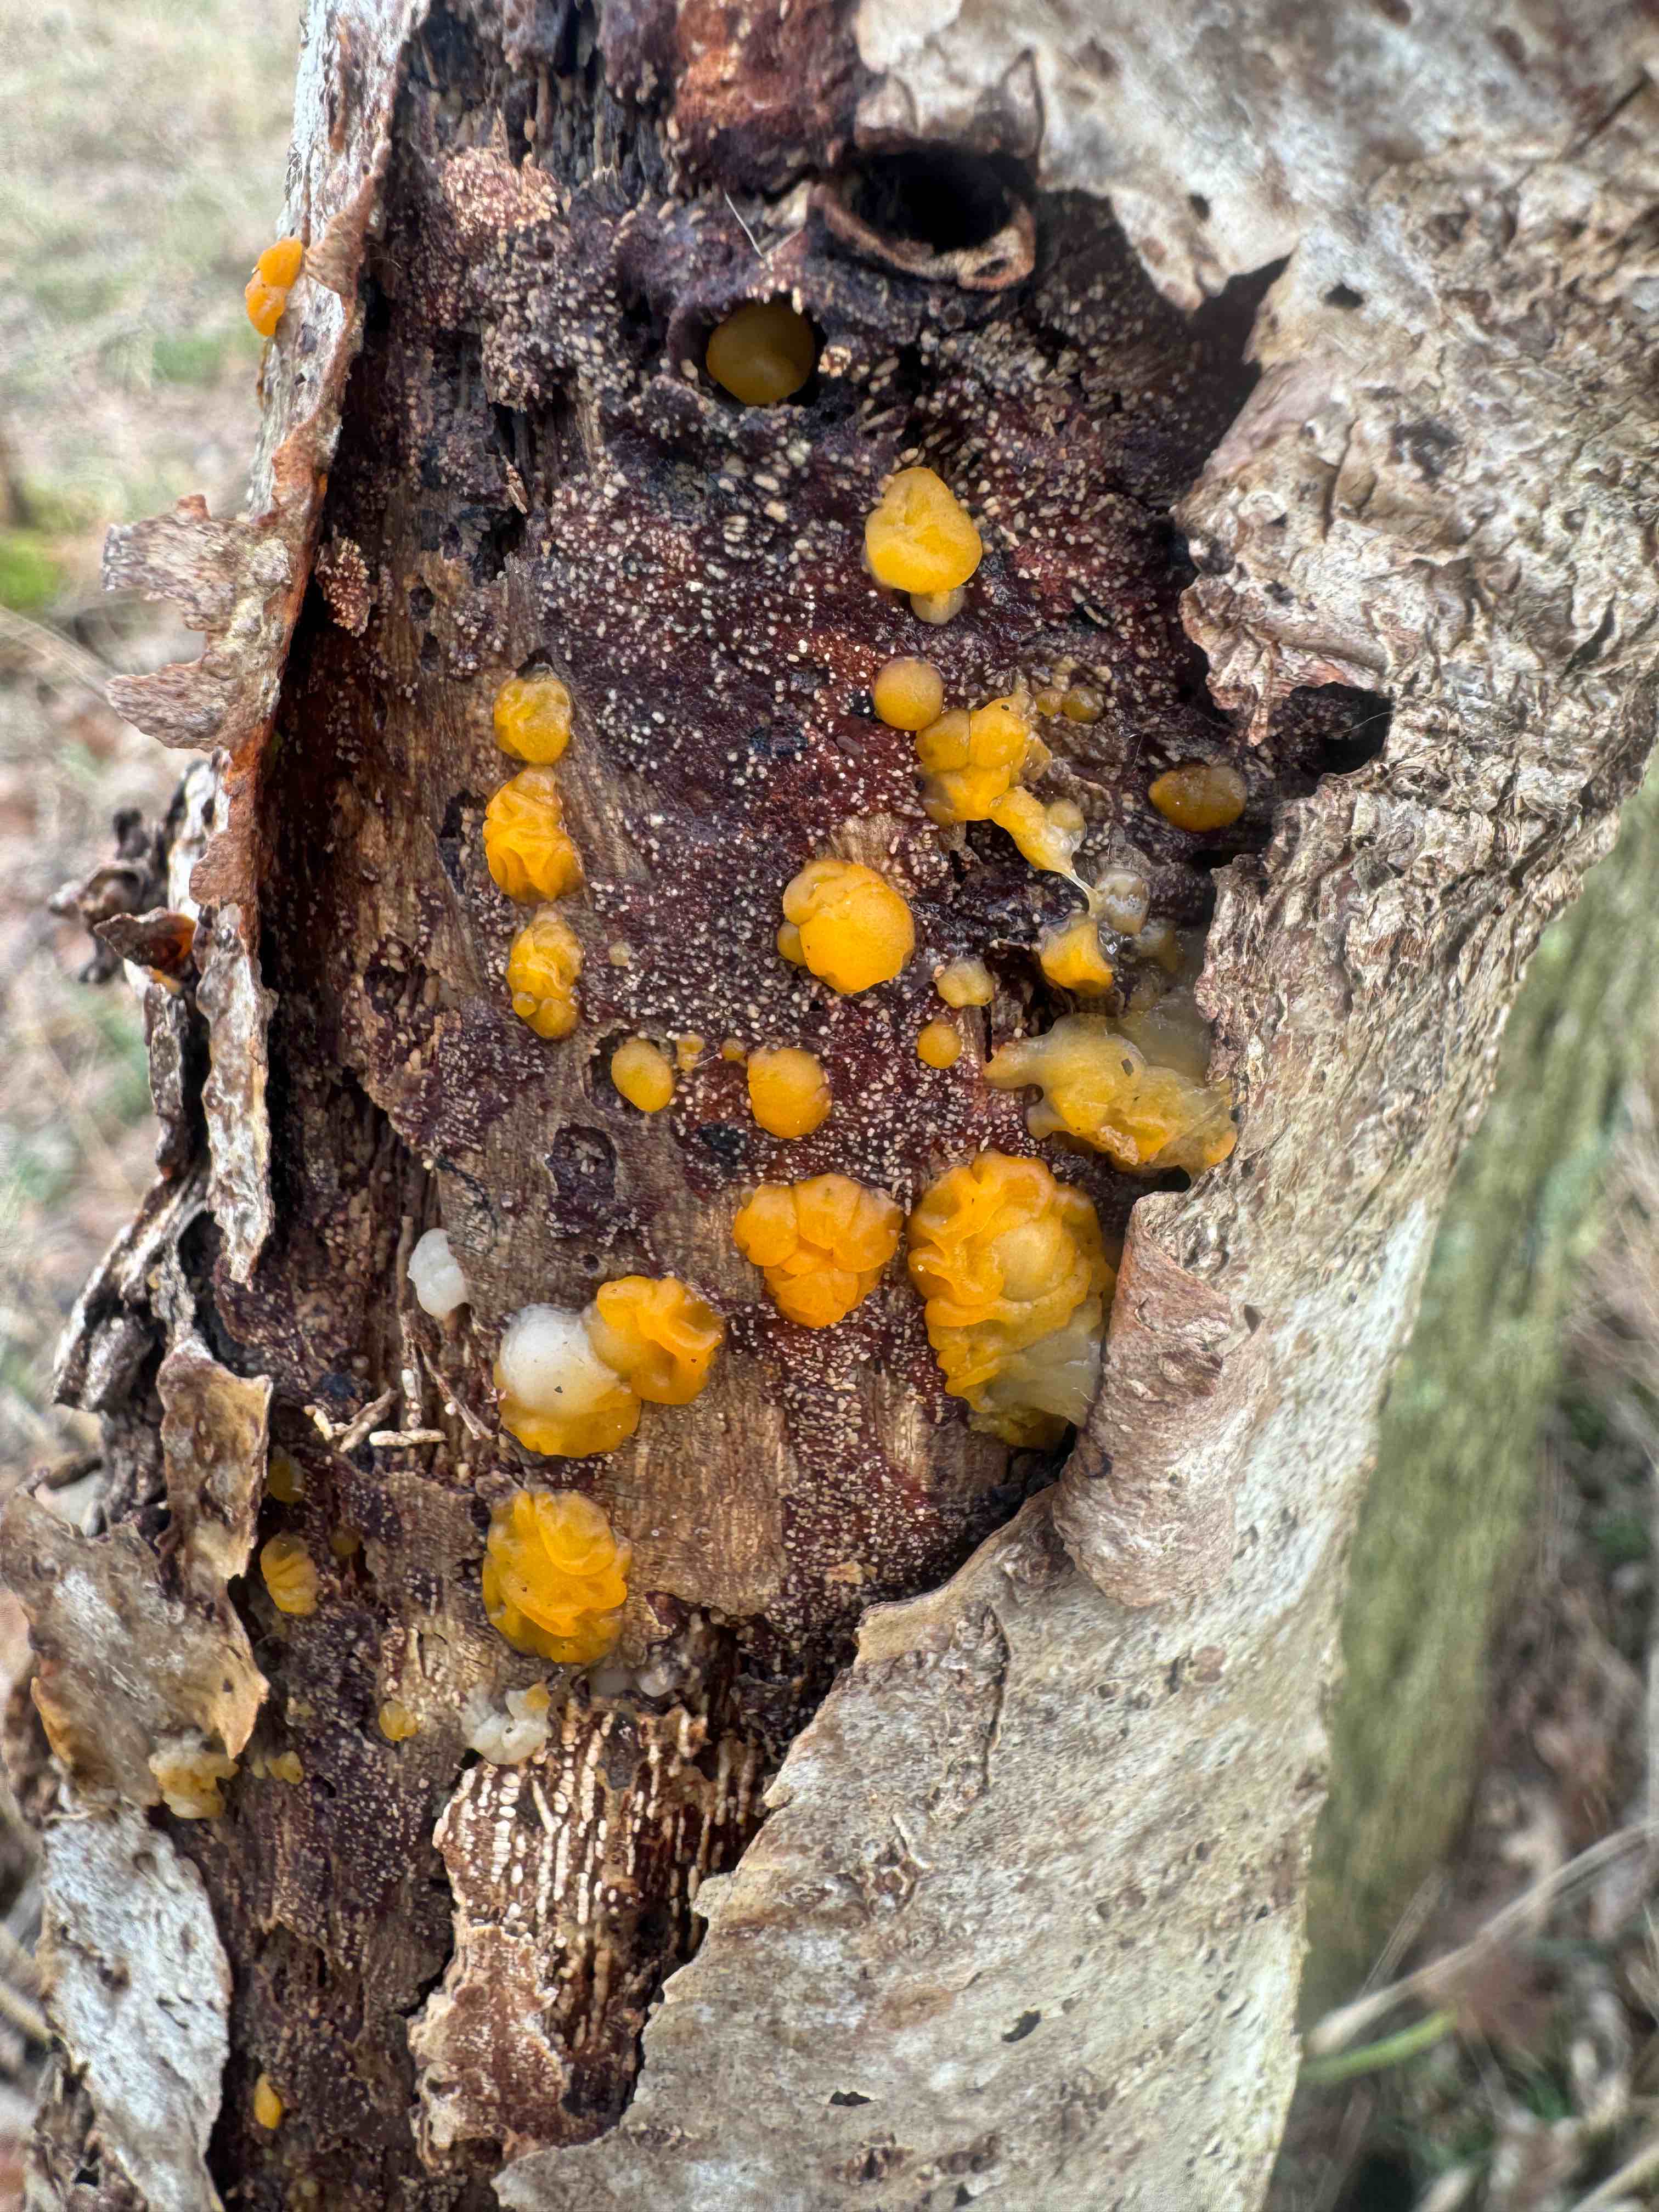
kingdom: Fungi
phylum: Basidiomycota
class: Dacrymycetes
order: Dacrymycetales
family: Dacrymycetaceae
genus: Dacrymyces
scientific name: Dacrymyces lacrymalis
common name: rynket tåresvamp
